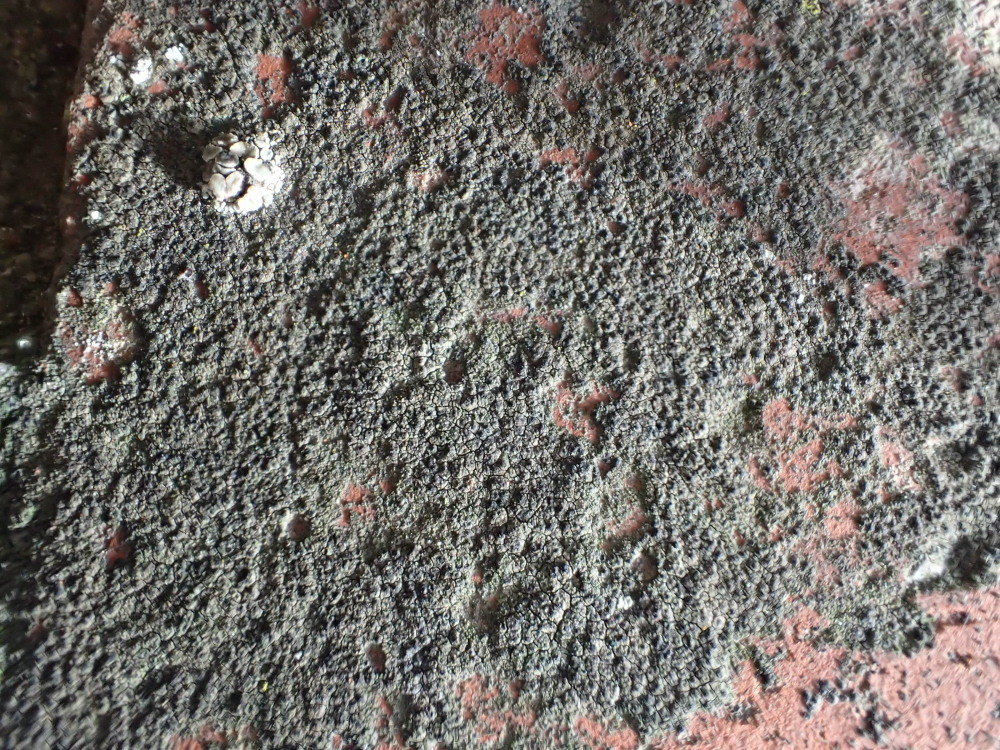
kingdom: Fungi
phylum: Ascomycota
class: Eurotiomycetes
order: Verrucariales
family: Verrucariaceae
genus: Verrucaria
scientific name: Verrucaria nigrescens
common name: sortbrun vortelav
